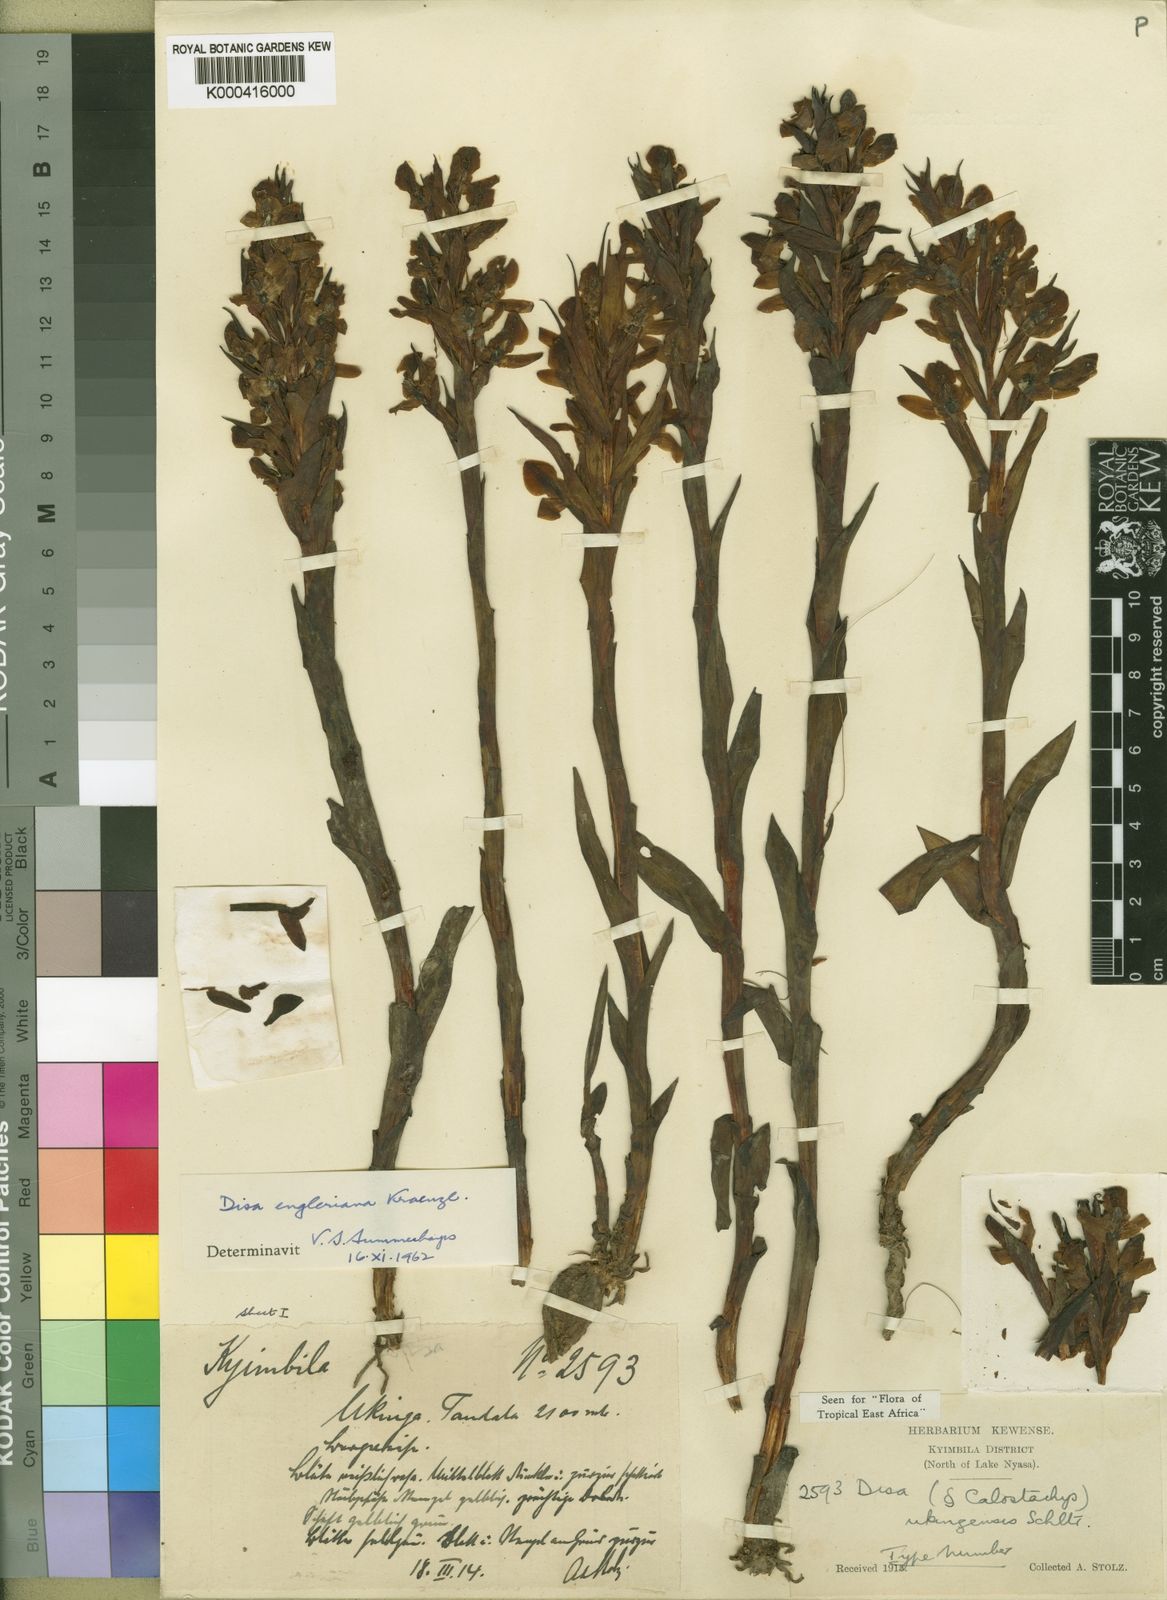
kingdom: Plantae
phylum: Tracheophyta
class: Liliopsida
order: Asparagales
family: Orchidaceae
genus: Disa
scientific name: Disa ukingensis
